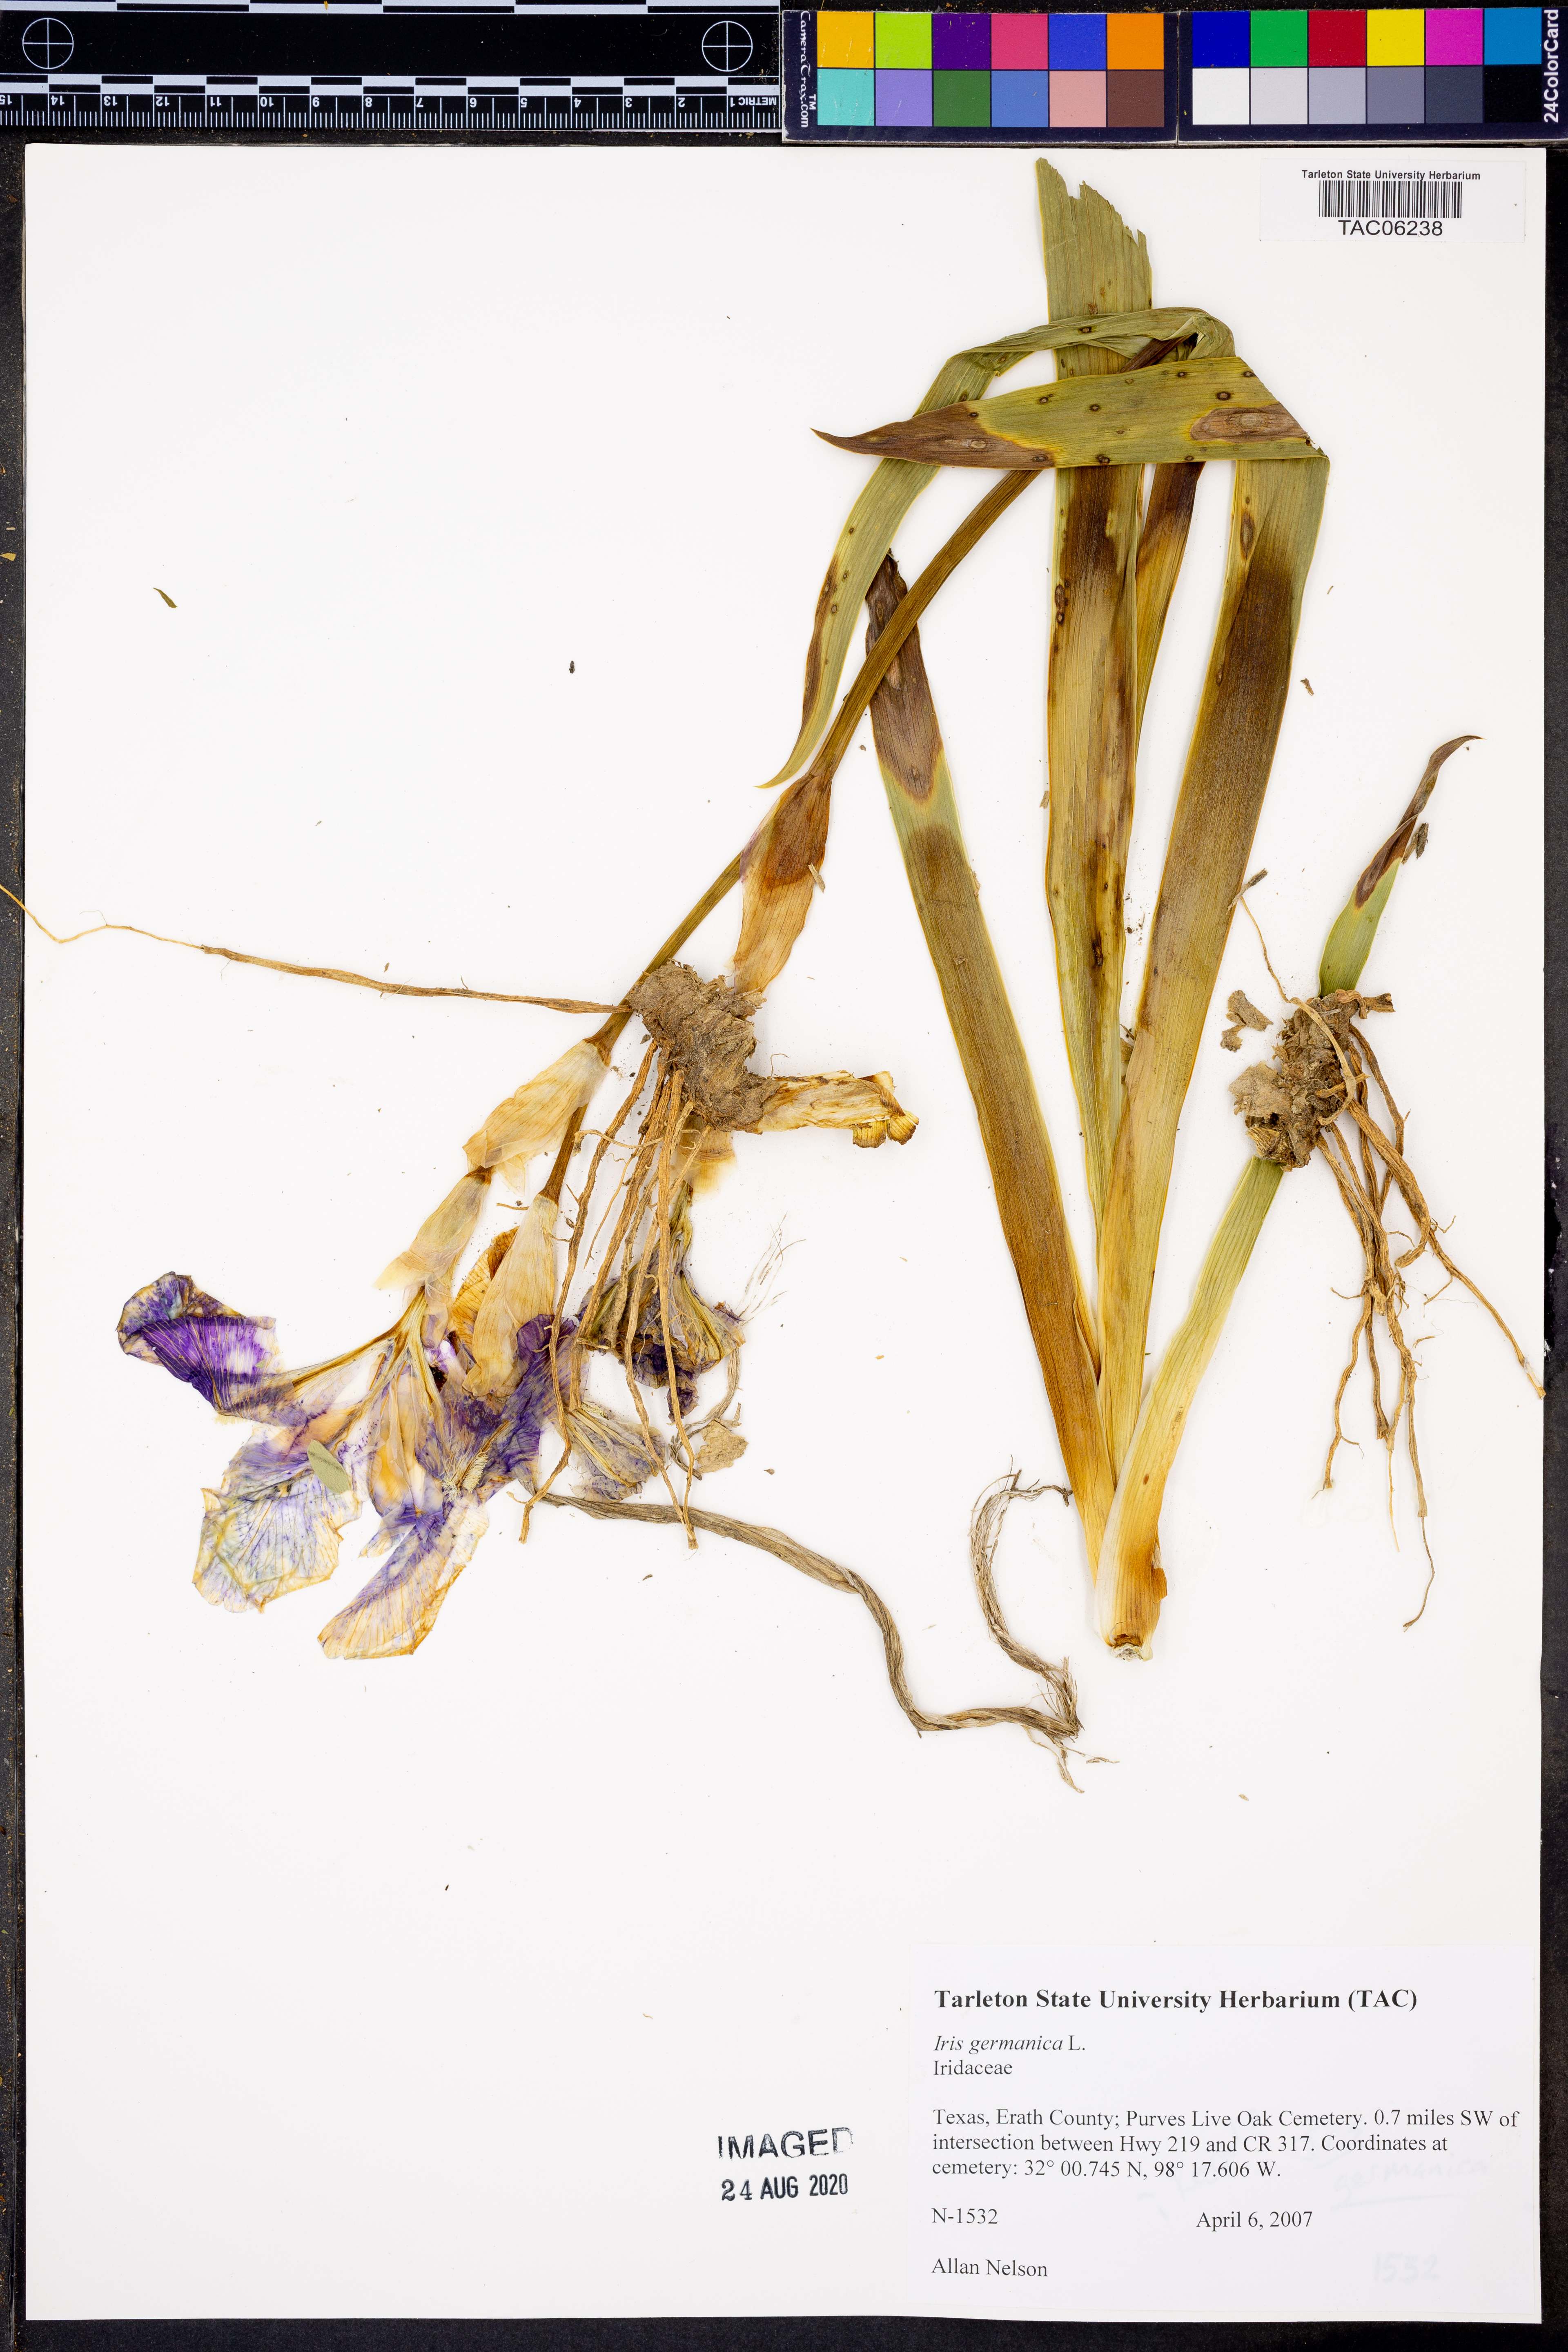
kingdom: Plantae
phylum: Tracheophyta
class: Liliopsida
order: Asparagales
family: Iridaceae
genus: Iris
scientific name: Iris germanica
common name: German iris
